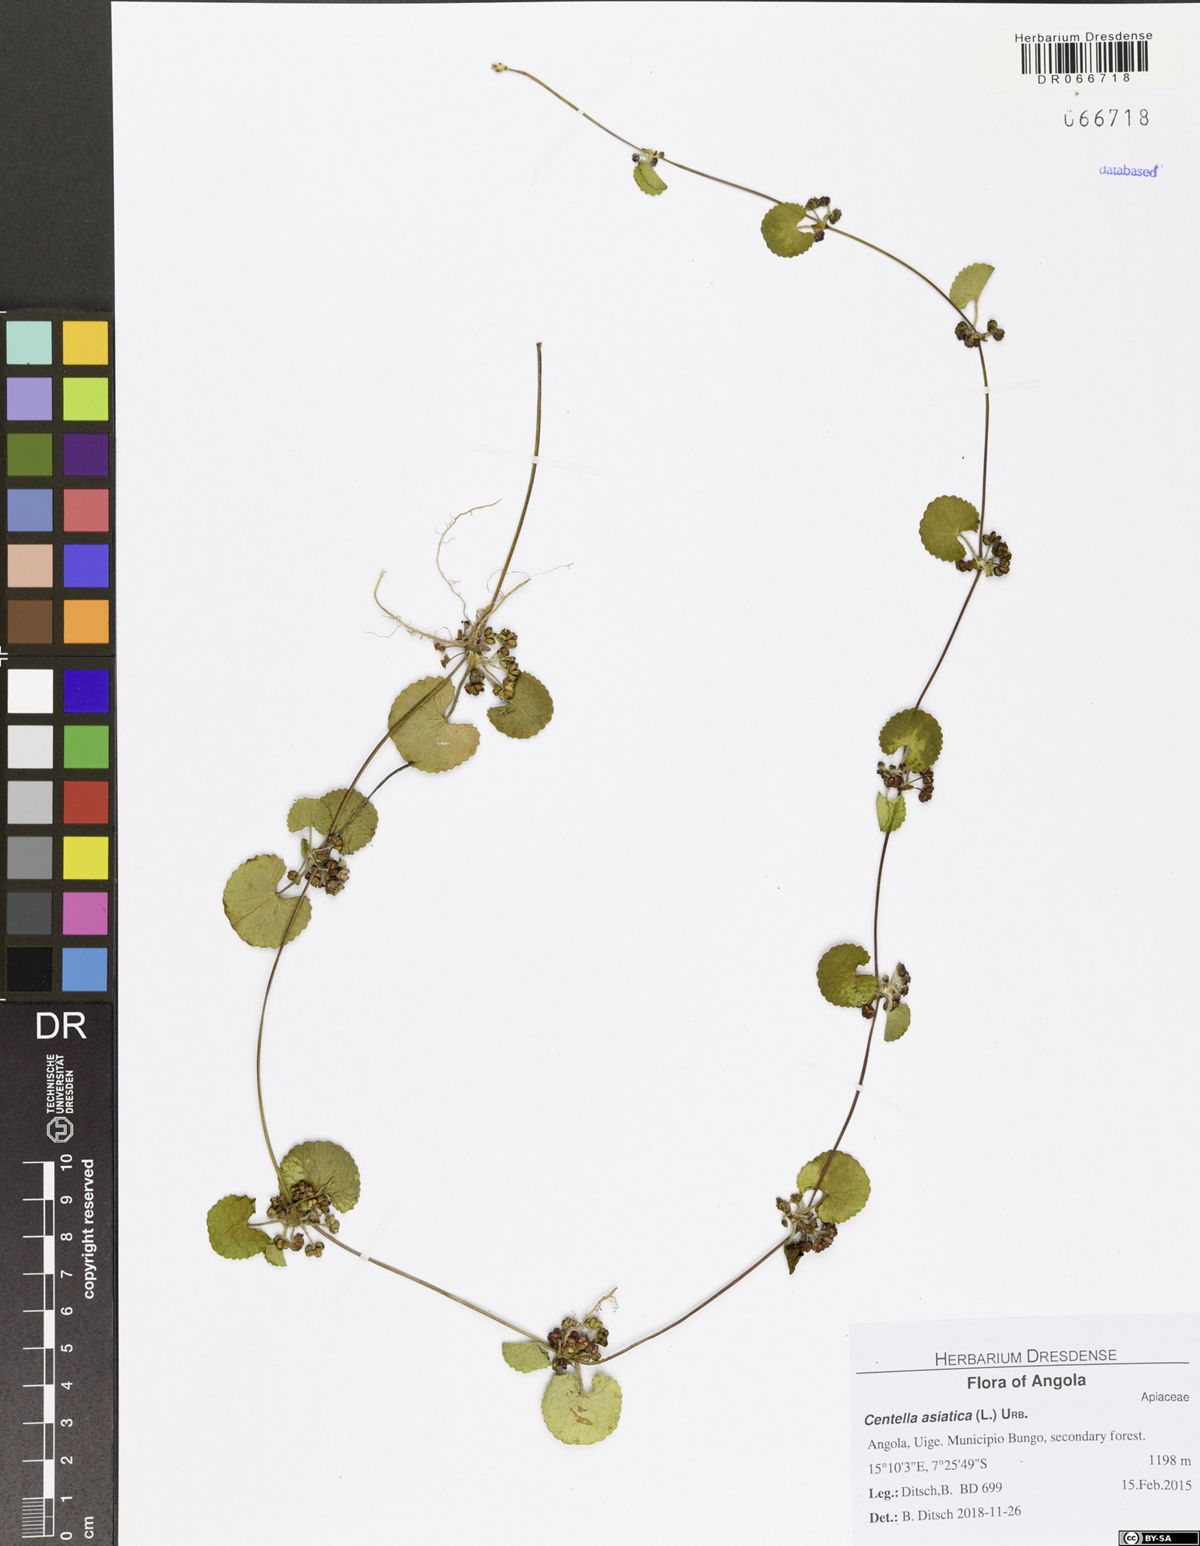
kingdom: Plantae
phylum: Tracheophyta
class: Magnoliopsida
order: Apiales
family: Apiaceae
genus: Centella
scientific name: Centella asiatica
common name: Spadeleaf
